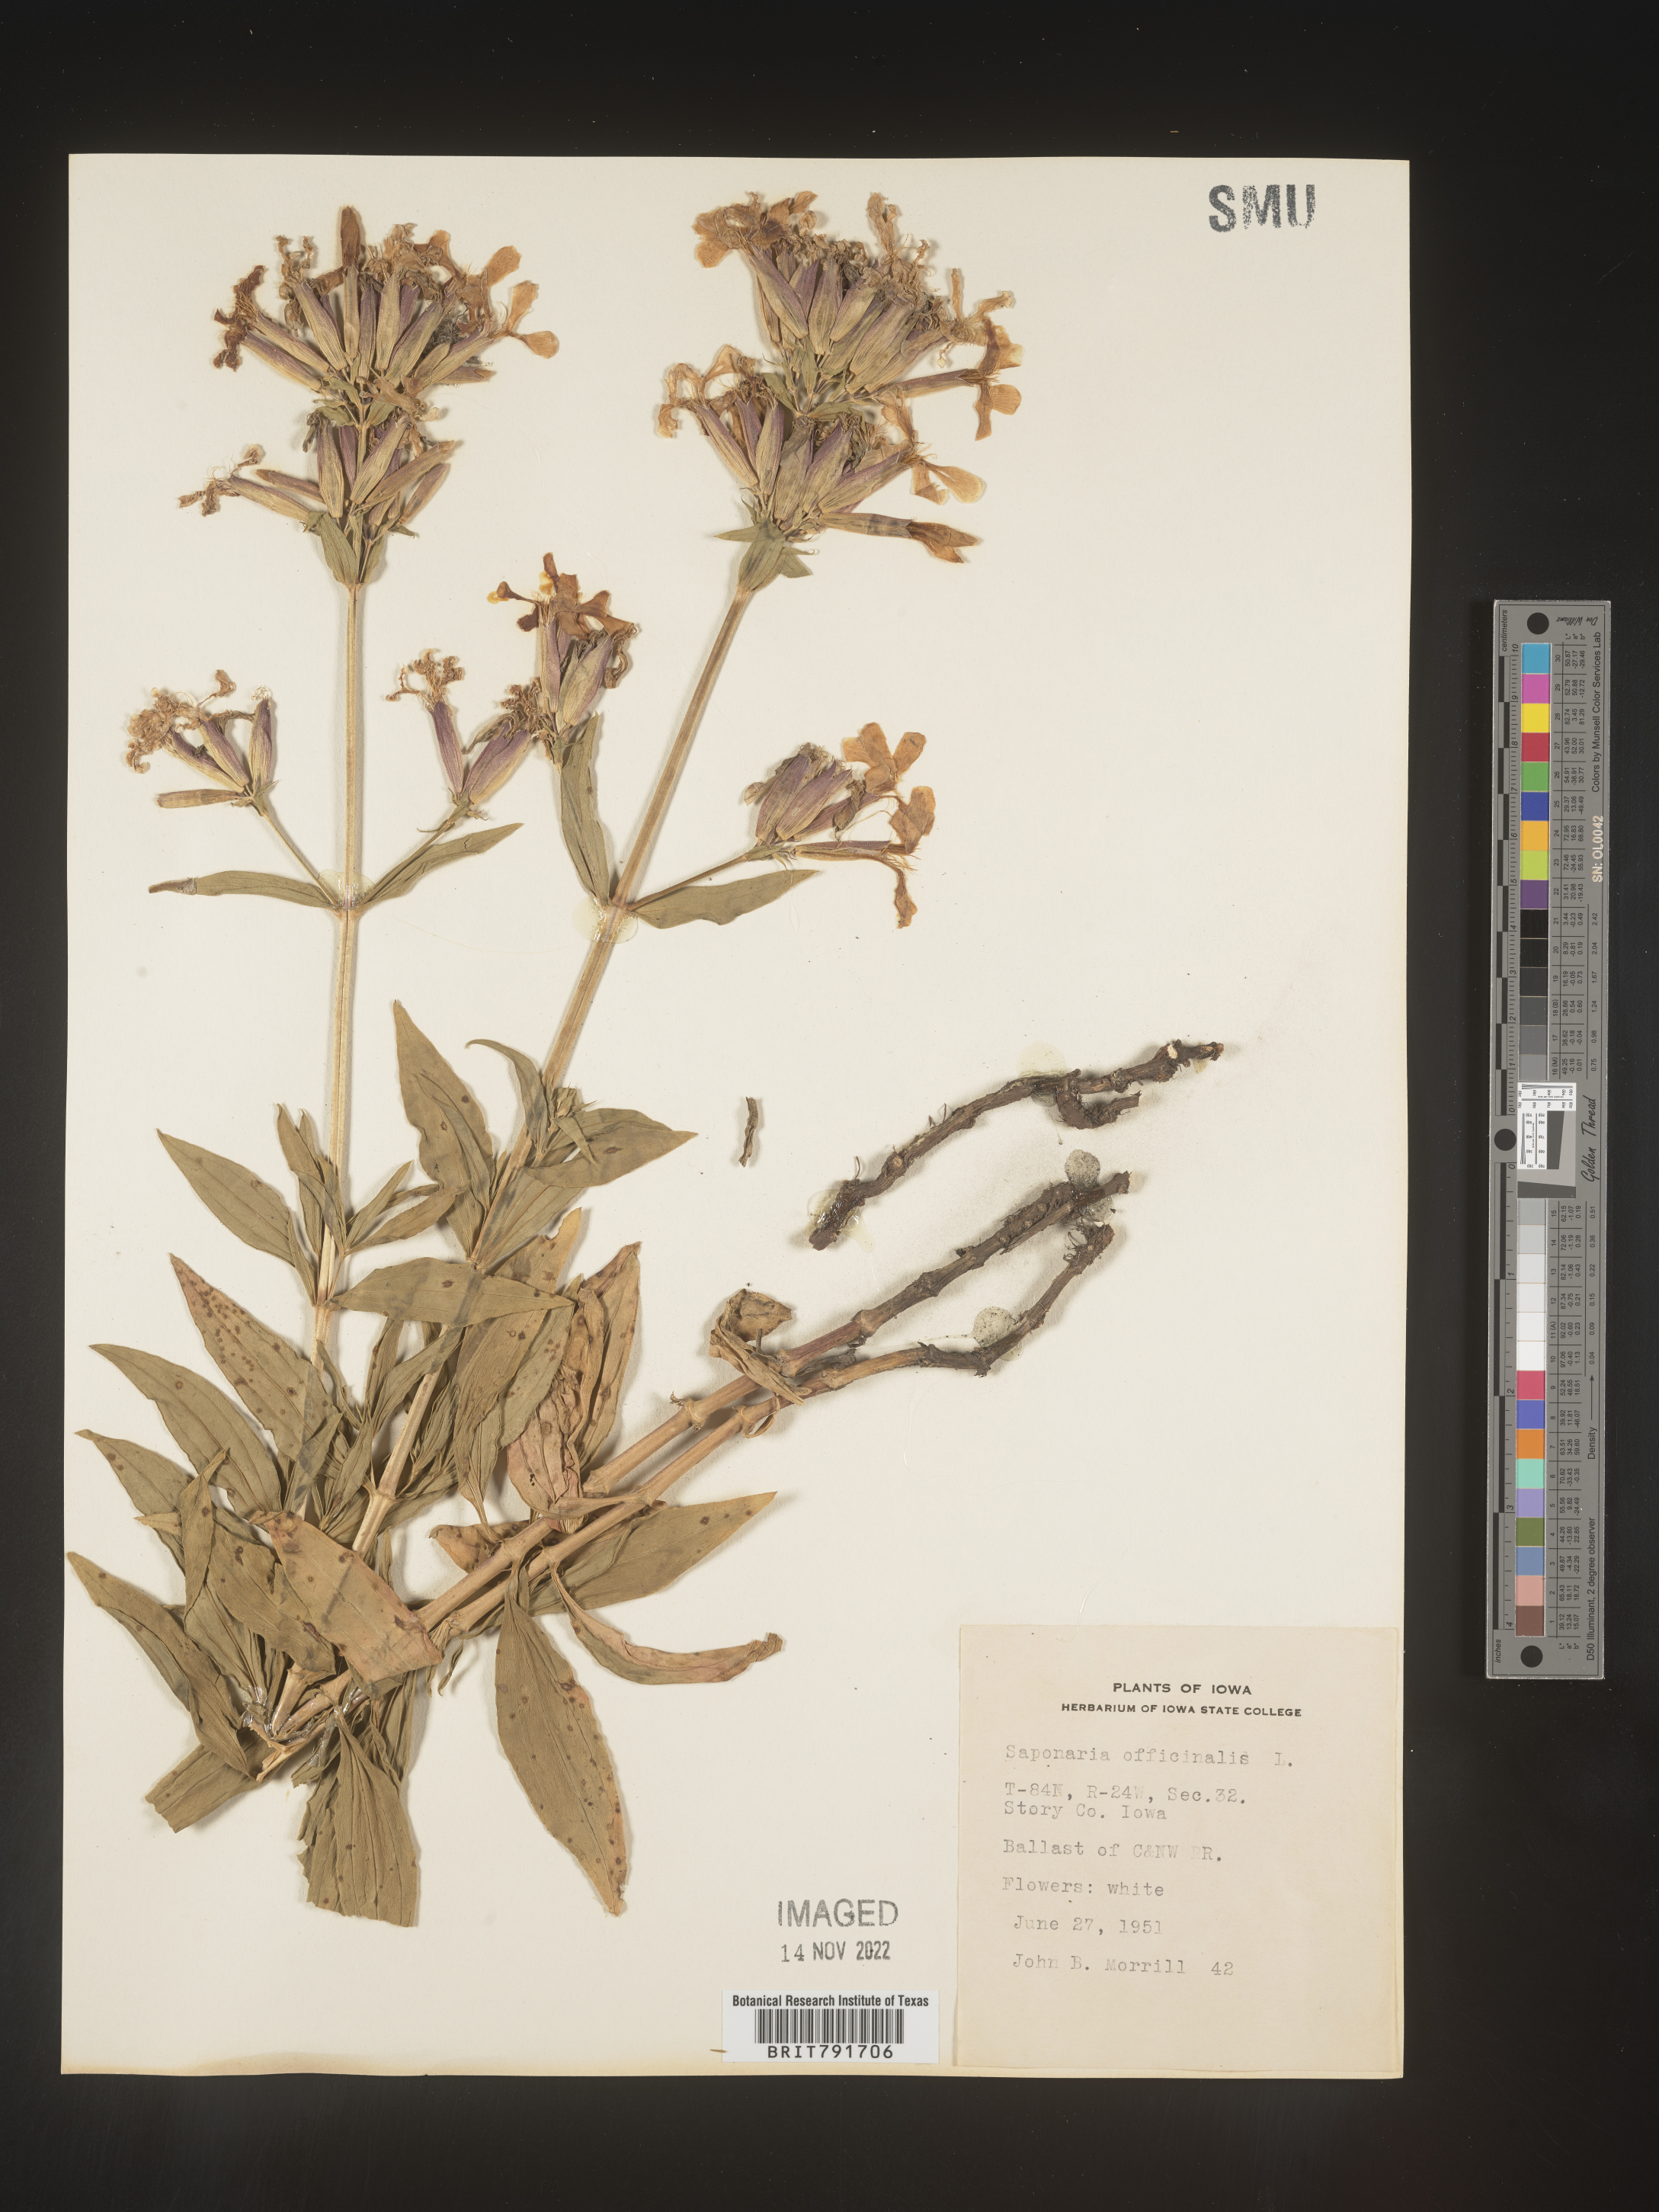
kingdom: Plantae
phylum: Tracheophyta
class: Magnoliopsida
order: Caryophyllales
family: Caryophyllaceae
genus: Saponaria
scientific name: Saponaria officinalis
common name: Soapwort
